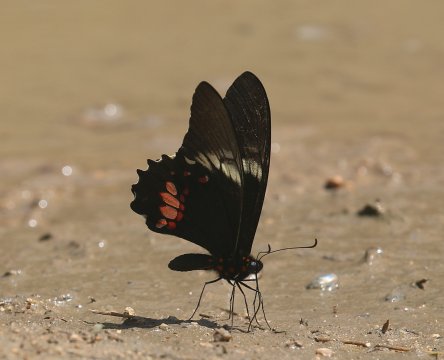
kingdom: Animalia
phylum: Arthropoda
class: Insecta
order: Lepidoptera
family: Papilionidae
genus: Papilio
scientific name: Papilio anchisiades
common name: Ruby-spotted Swallowtail
